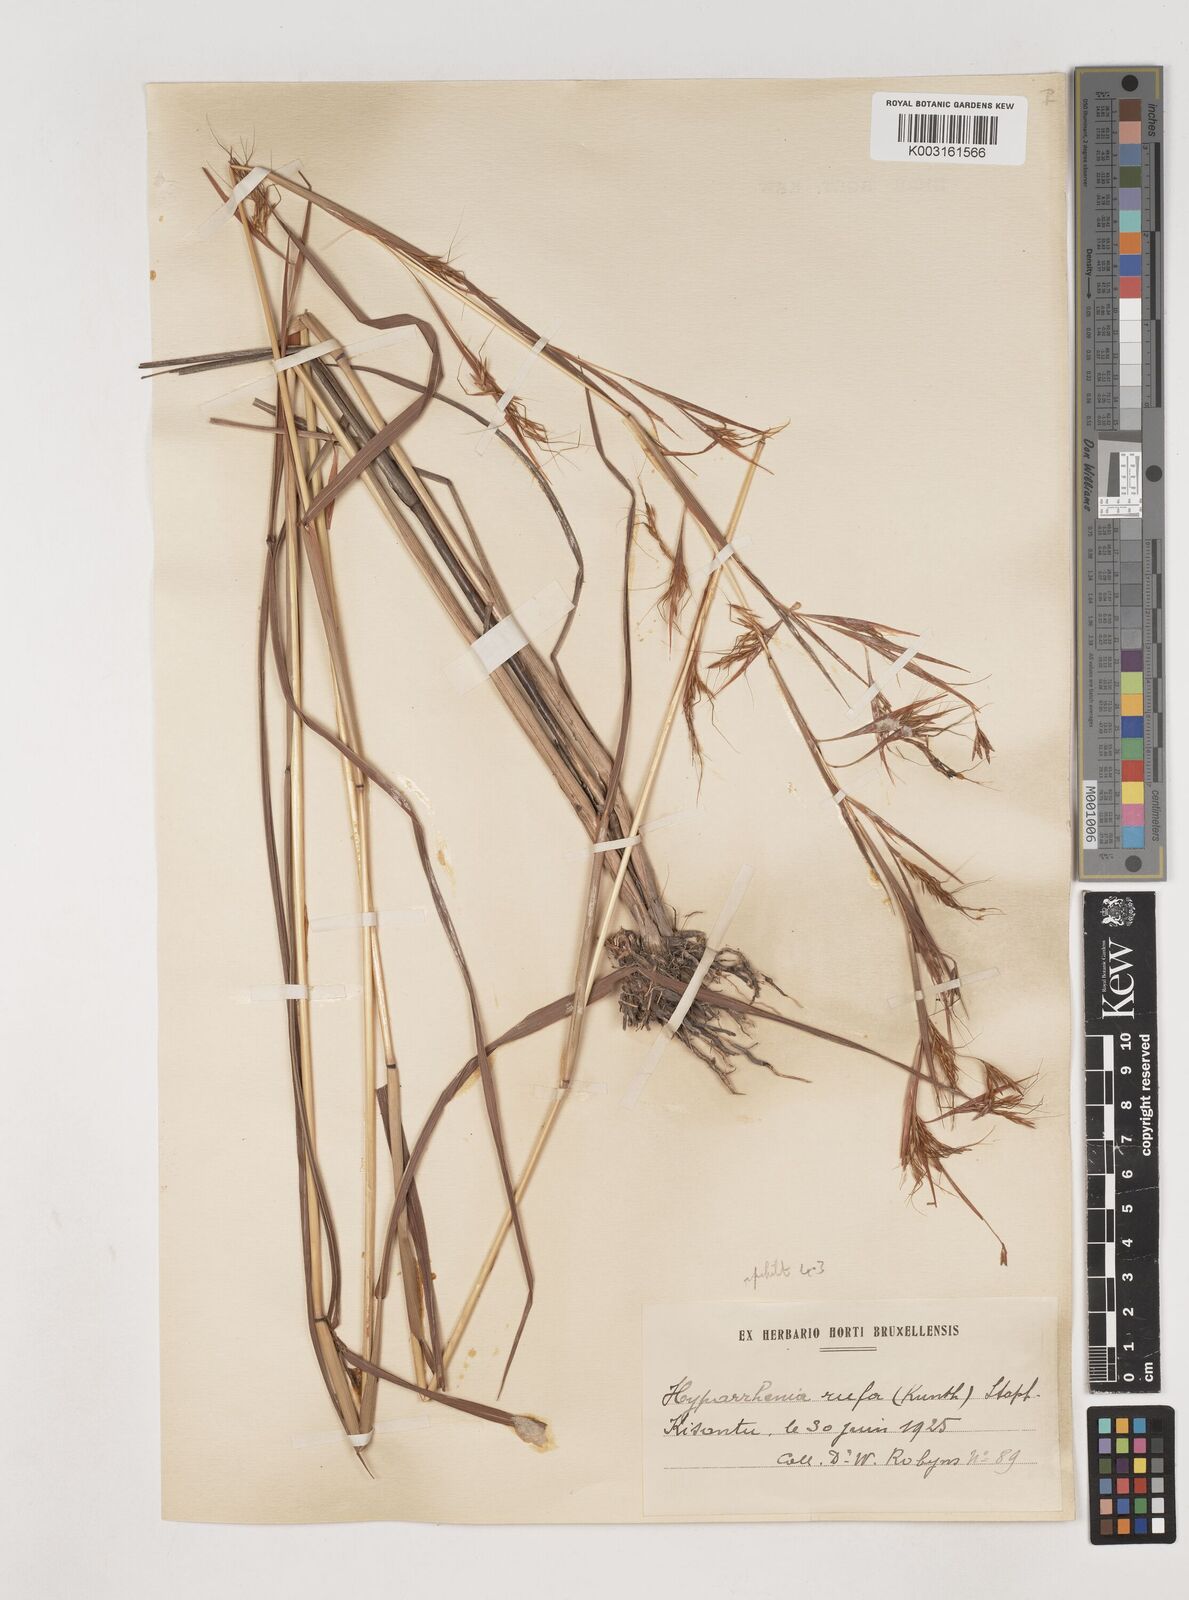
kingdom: Plantae
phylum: Tracheophyta
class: Liliopsida
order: Poales
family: Poaceae
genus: Hyparrhenia
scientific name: Hyparrhenia rufa
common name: Jaraguagrass
